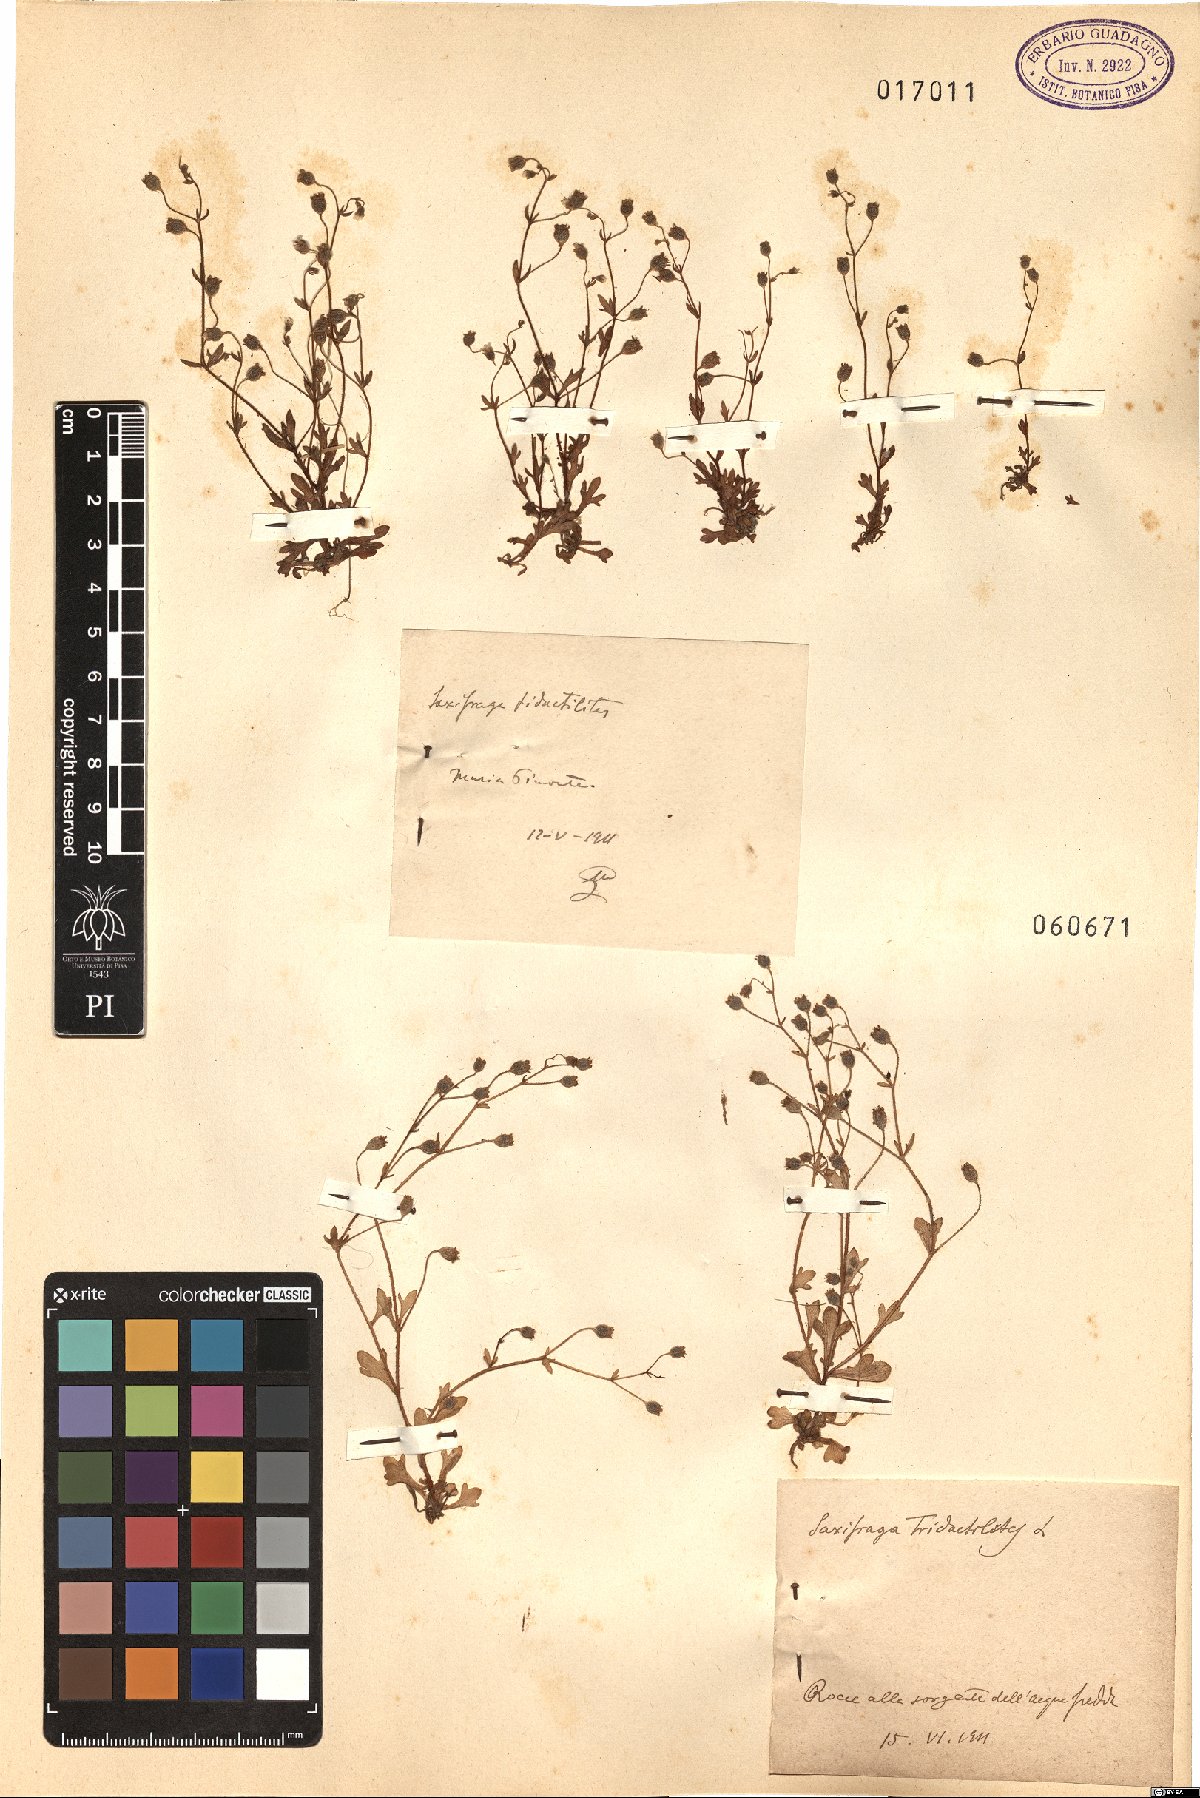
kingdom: Plantae
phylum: Tracheophyta
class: Magnoliopsida
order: Saxifragales
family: Saxifragaceae
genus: Saxifraga
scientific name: Saxifraga tridactylites
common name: Rue-leaved saxifrage
